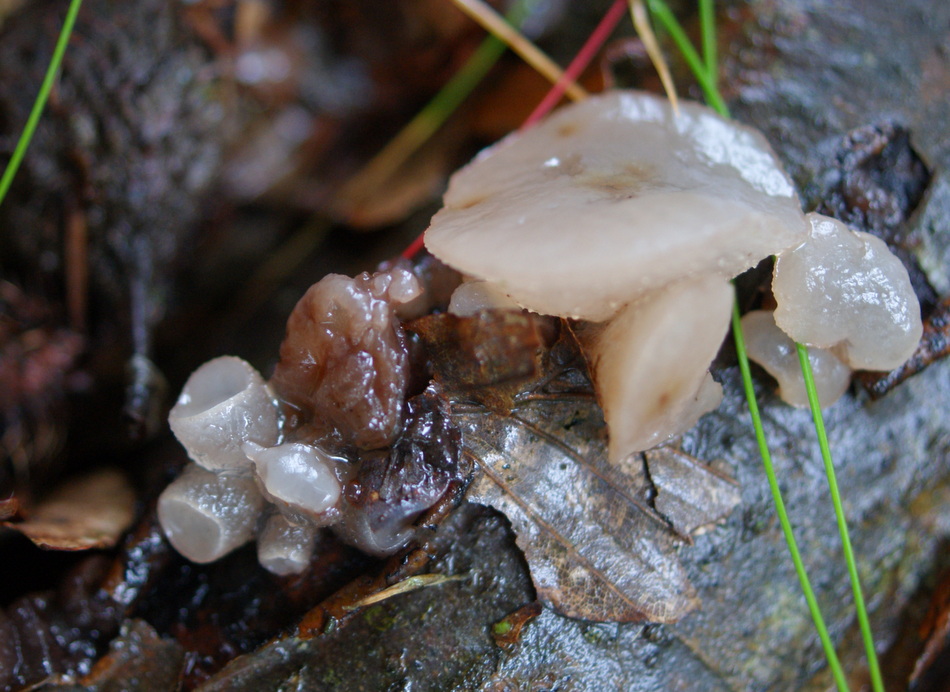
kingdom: Fungi
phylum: Ascomycota
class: Leotiomycetes
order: Helotiales
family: Gelatinodiscaceae
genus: Neobulgaria
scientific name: Neobulgaria pura
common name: bleg bævreskive
